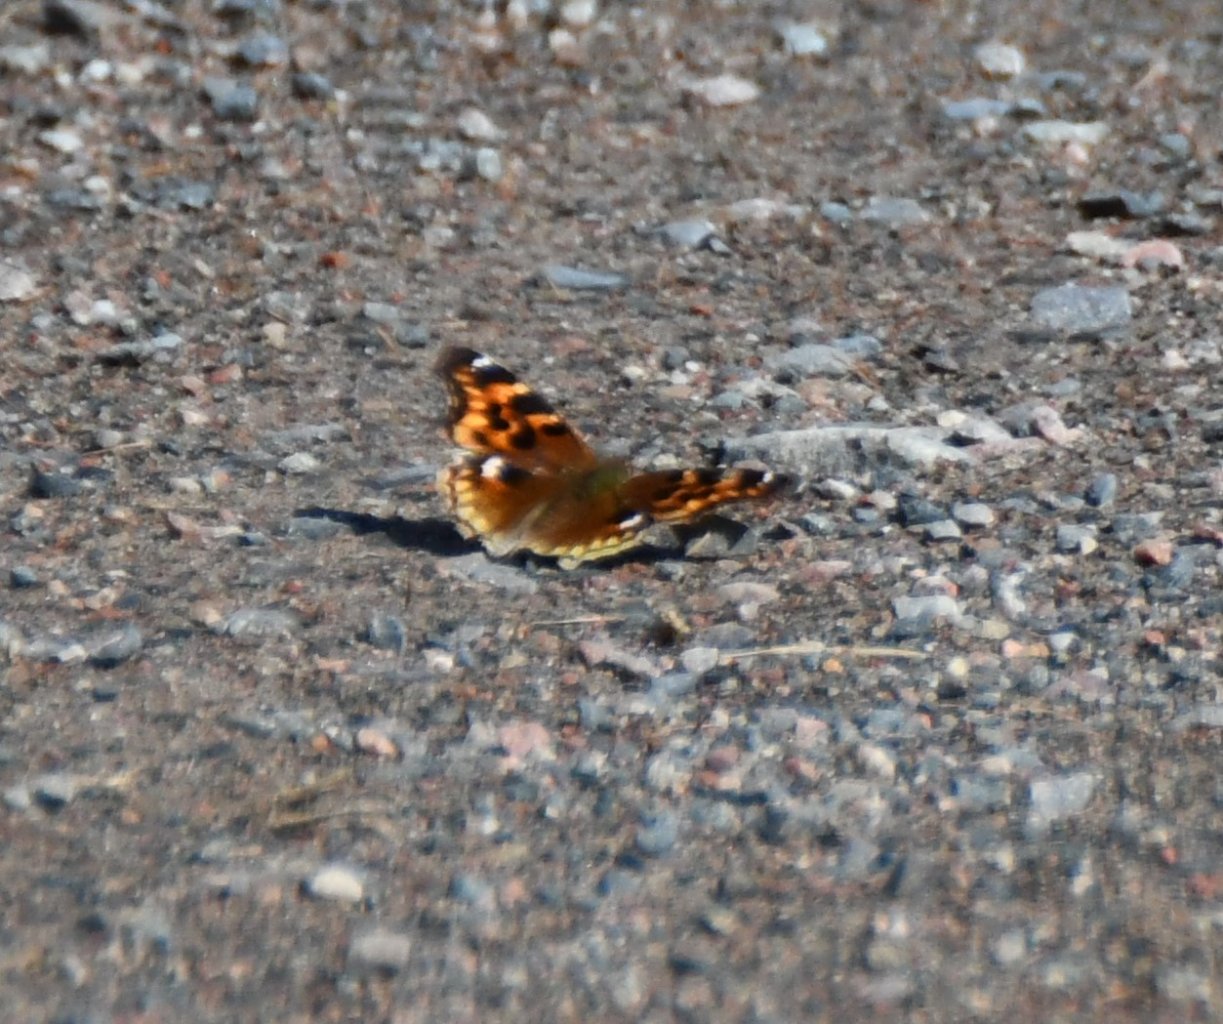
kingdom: Animalia
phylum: Arthropoda
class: Insecta
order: Lepidoptera
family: Nymphalidae
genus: Polygonia
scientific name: Polygonia vaualbum
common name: Compton Tortoiseshell
